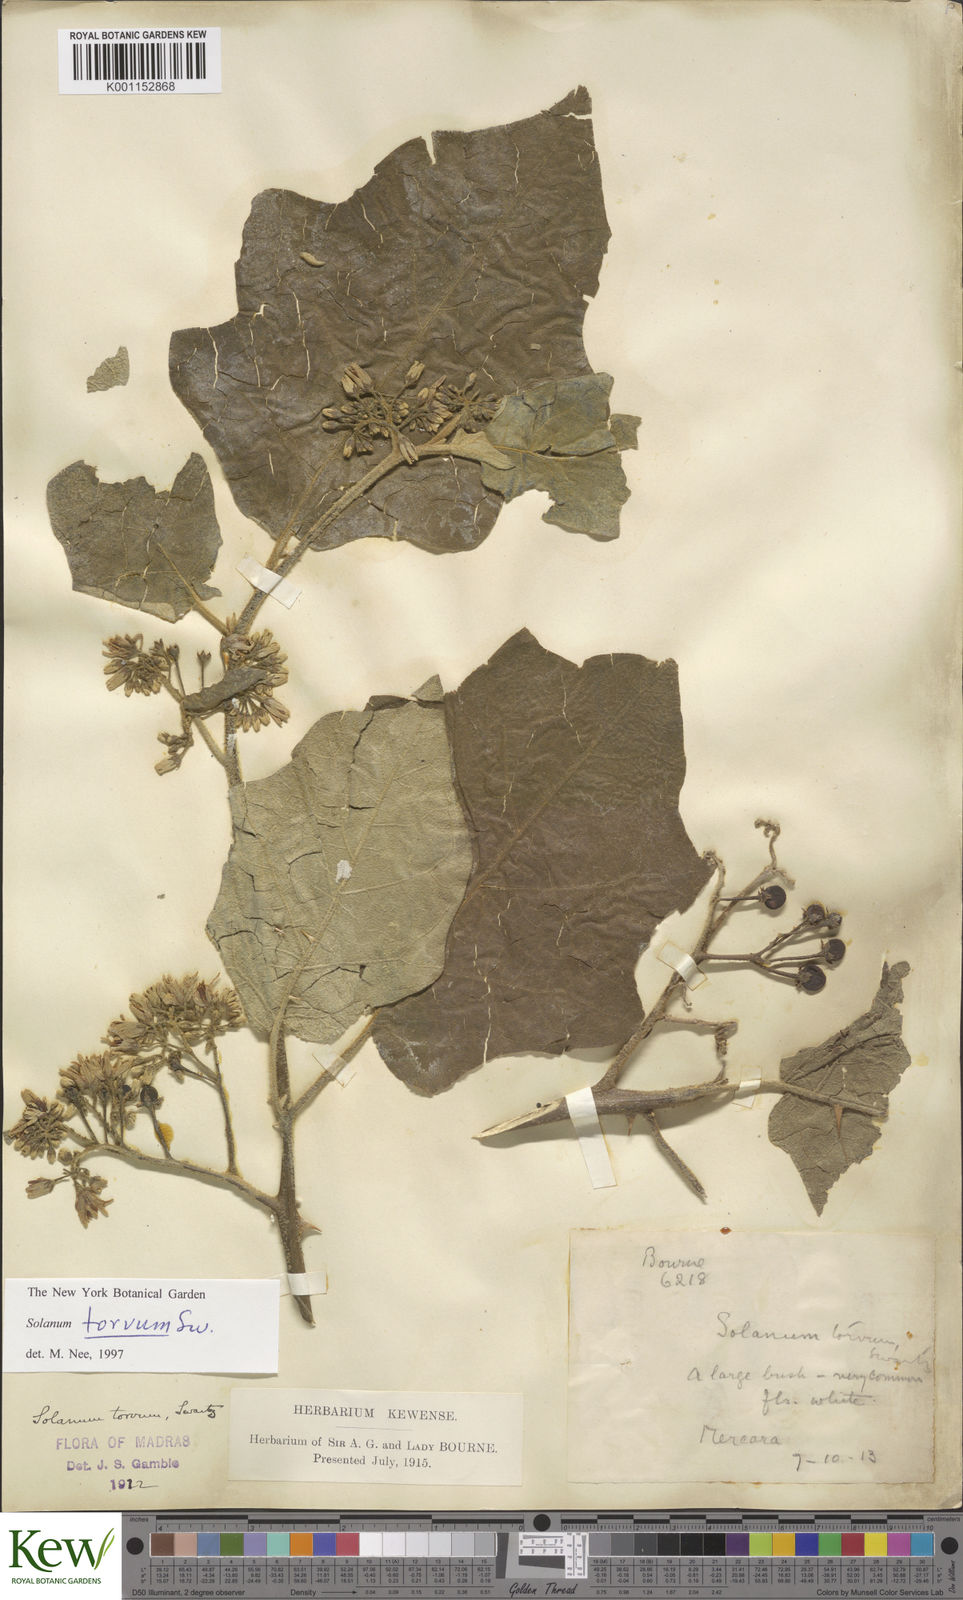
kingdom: Plantae
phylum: Tracheophyta
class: Magnoliopsida
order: Solanales
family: Solanaceae
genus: Solanum
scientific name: Solanum torvum
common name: Turkey berry
